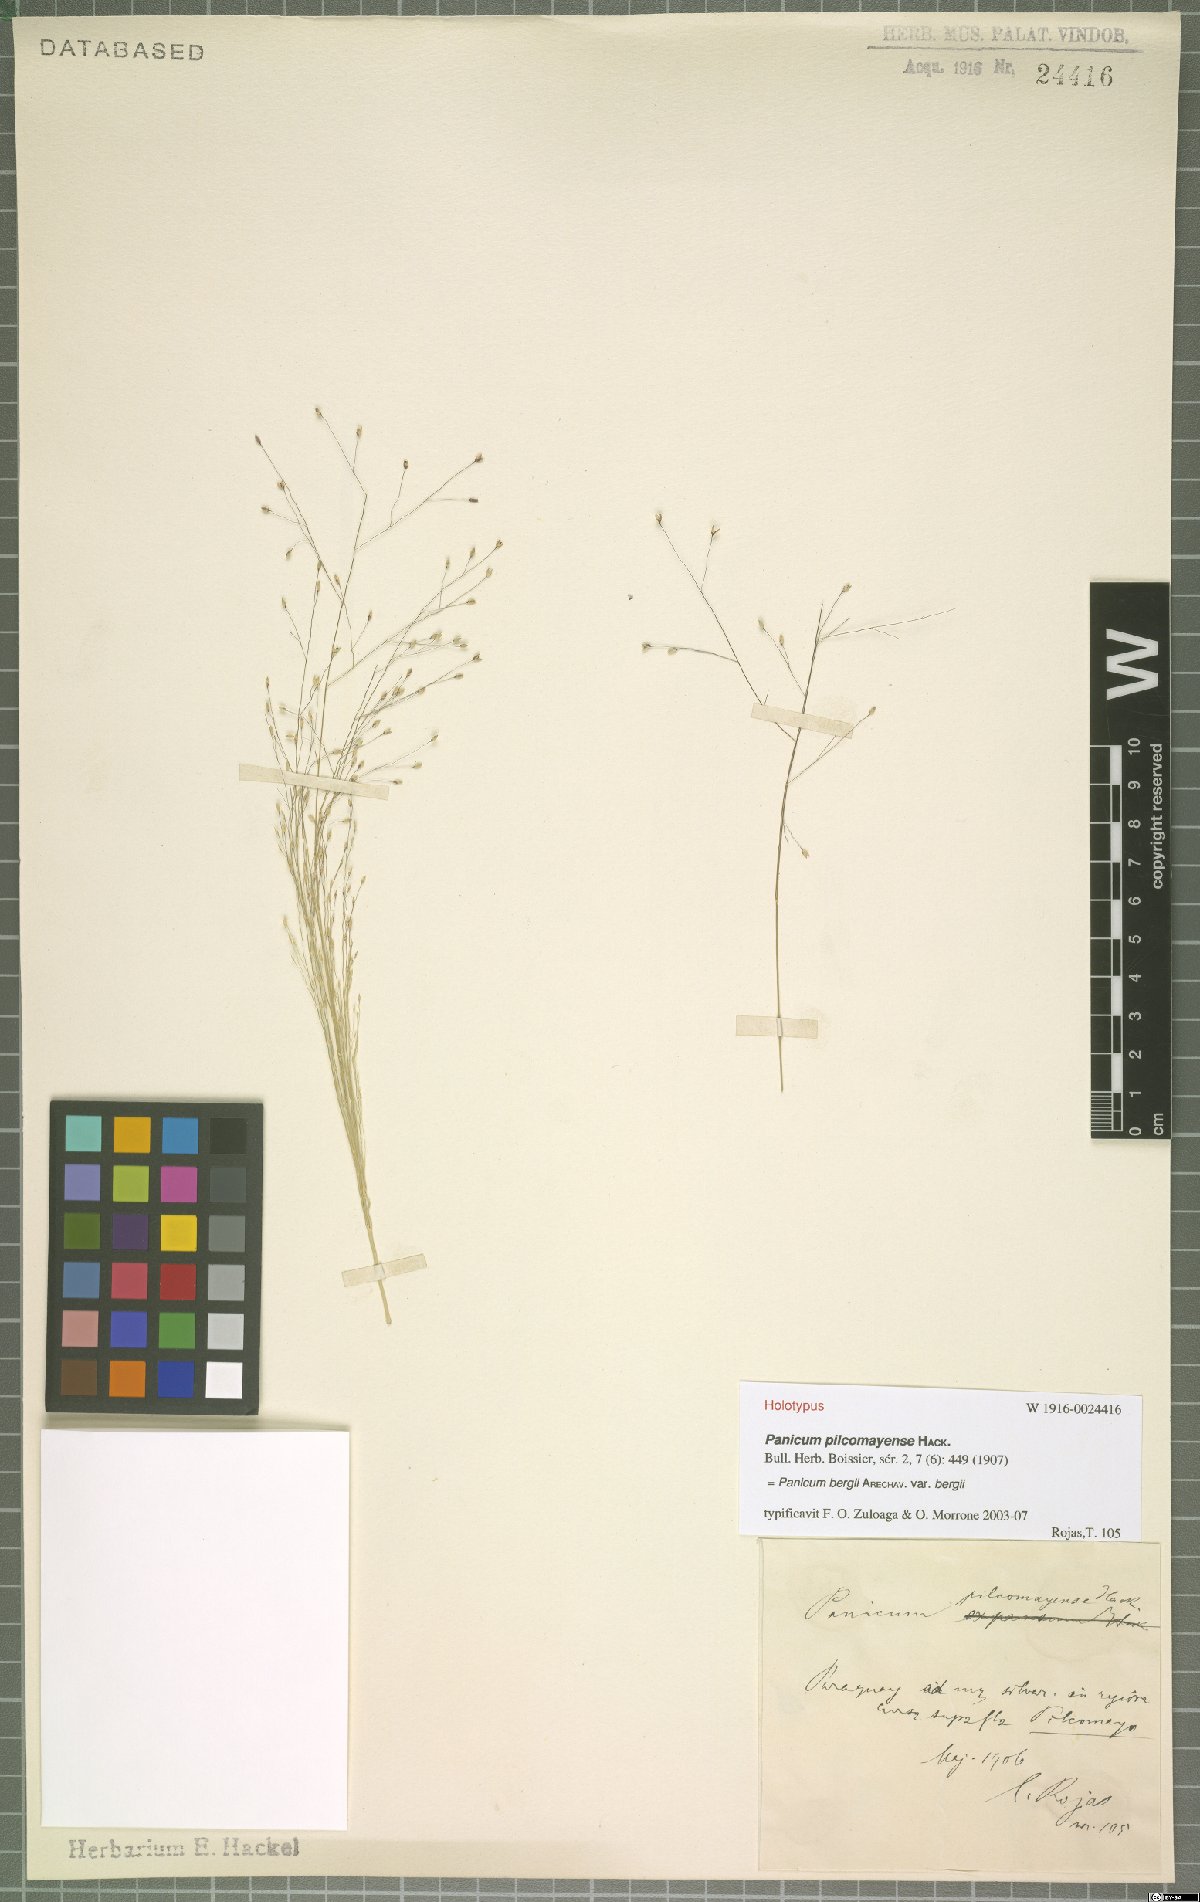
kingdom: Plantae
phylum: Tracheophyta
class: Liliopsida
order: Poales
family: Poaceae
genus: Panicum
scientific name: Panicum bergii
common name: Berg's panicgrass
